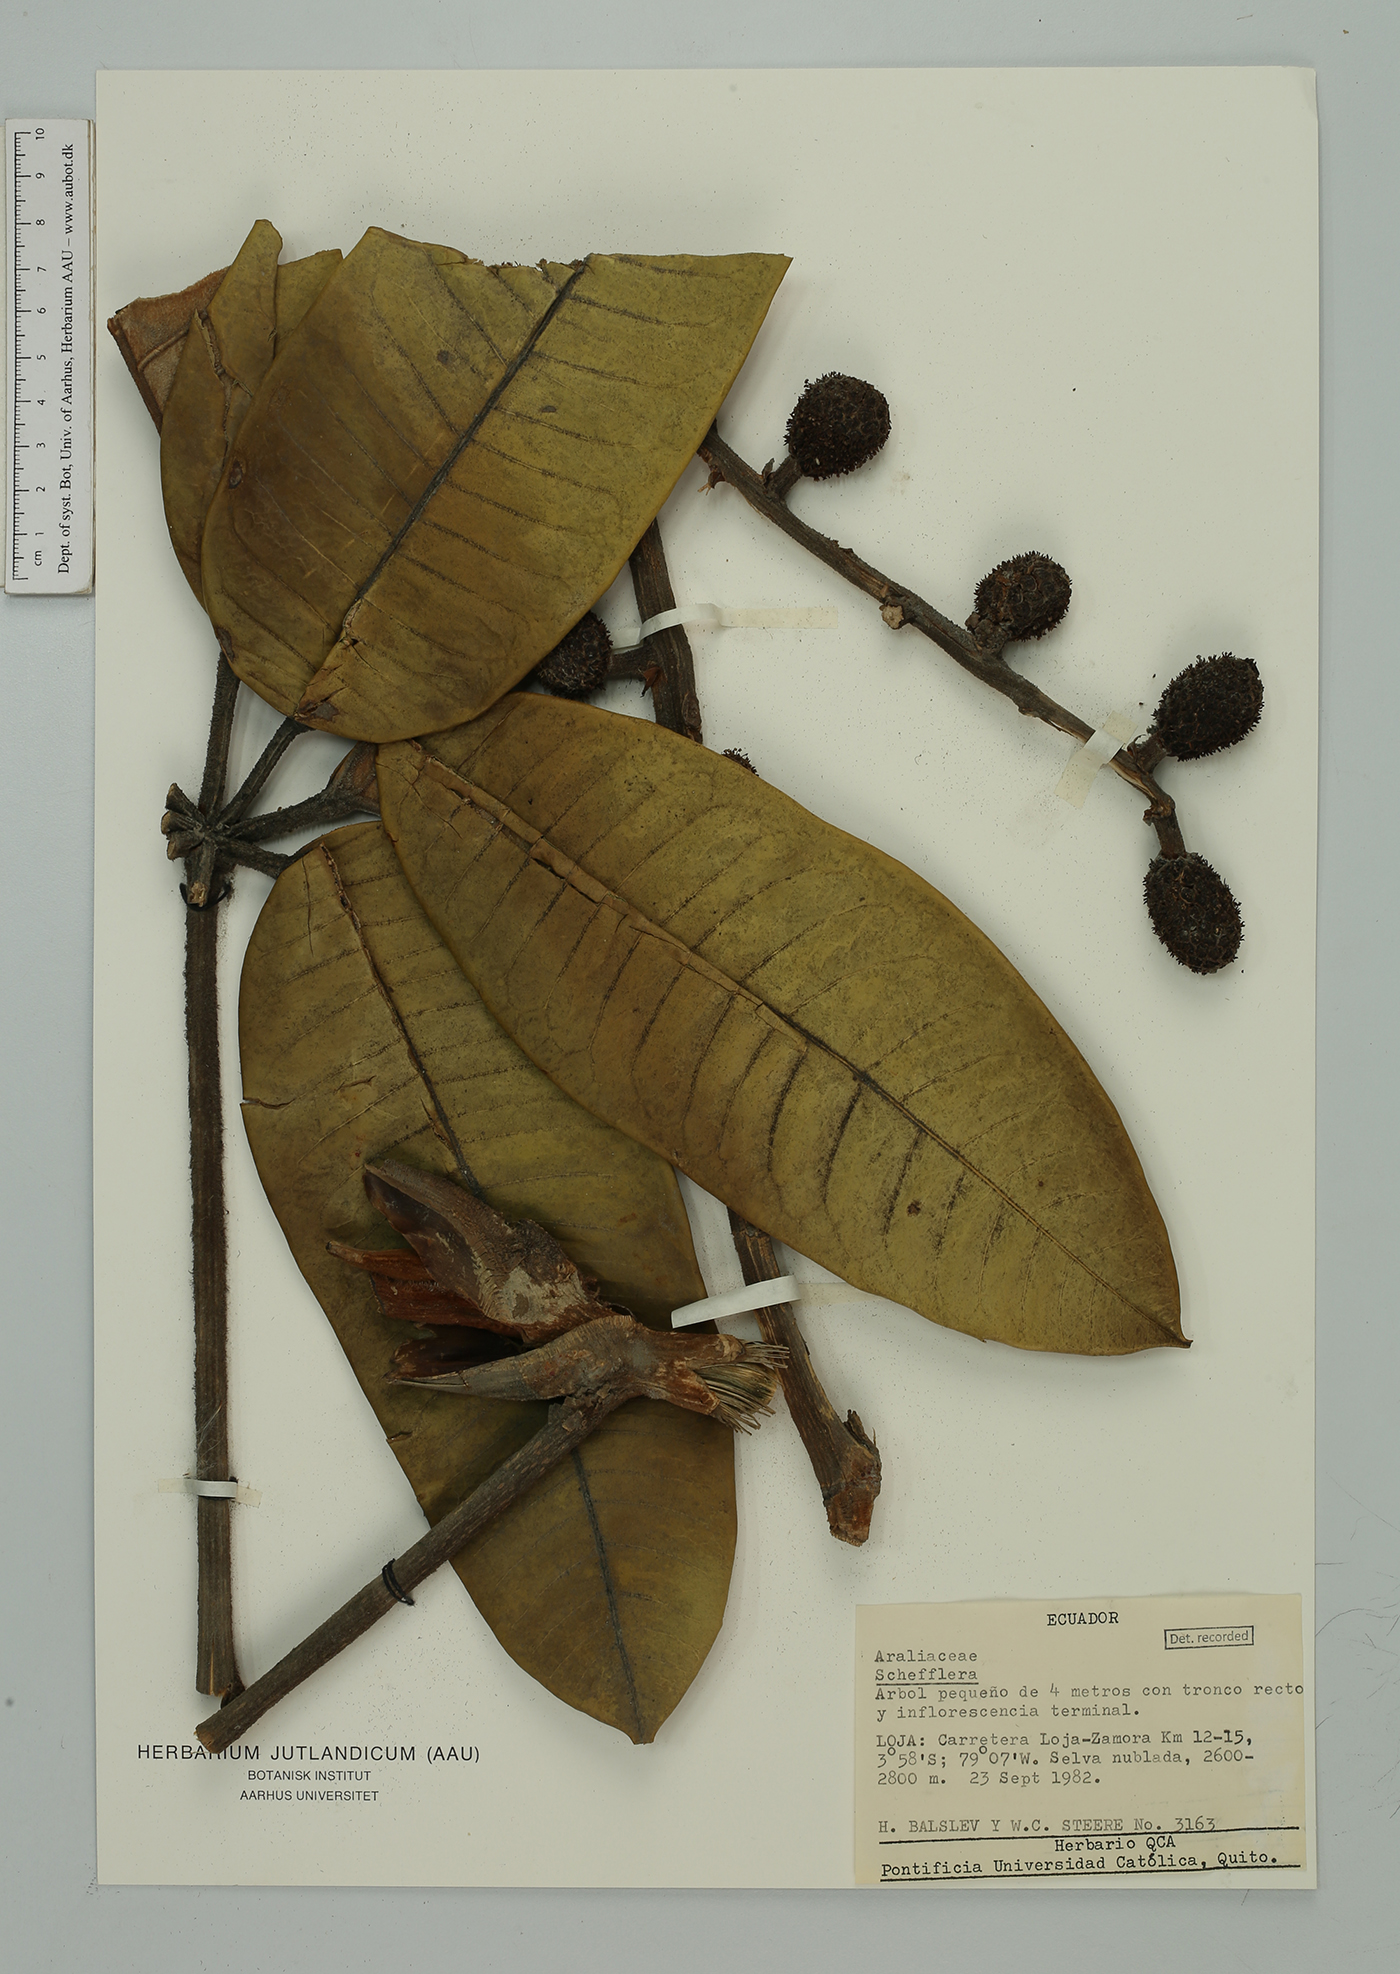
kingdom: Plantae
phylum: Tracheophyta
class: Magnoliopsida
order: Apiales
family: Araliaceae
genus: Schefflera
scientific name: Schefflera
